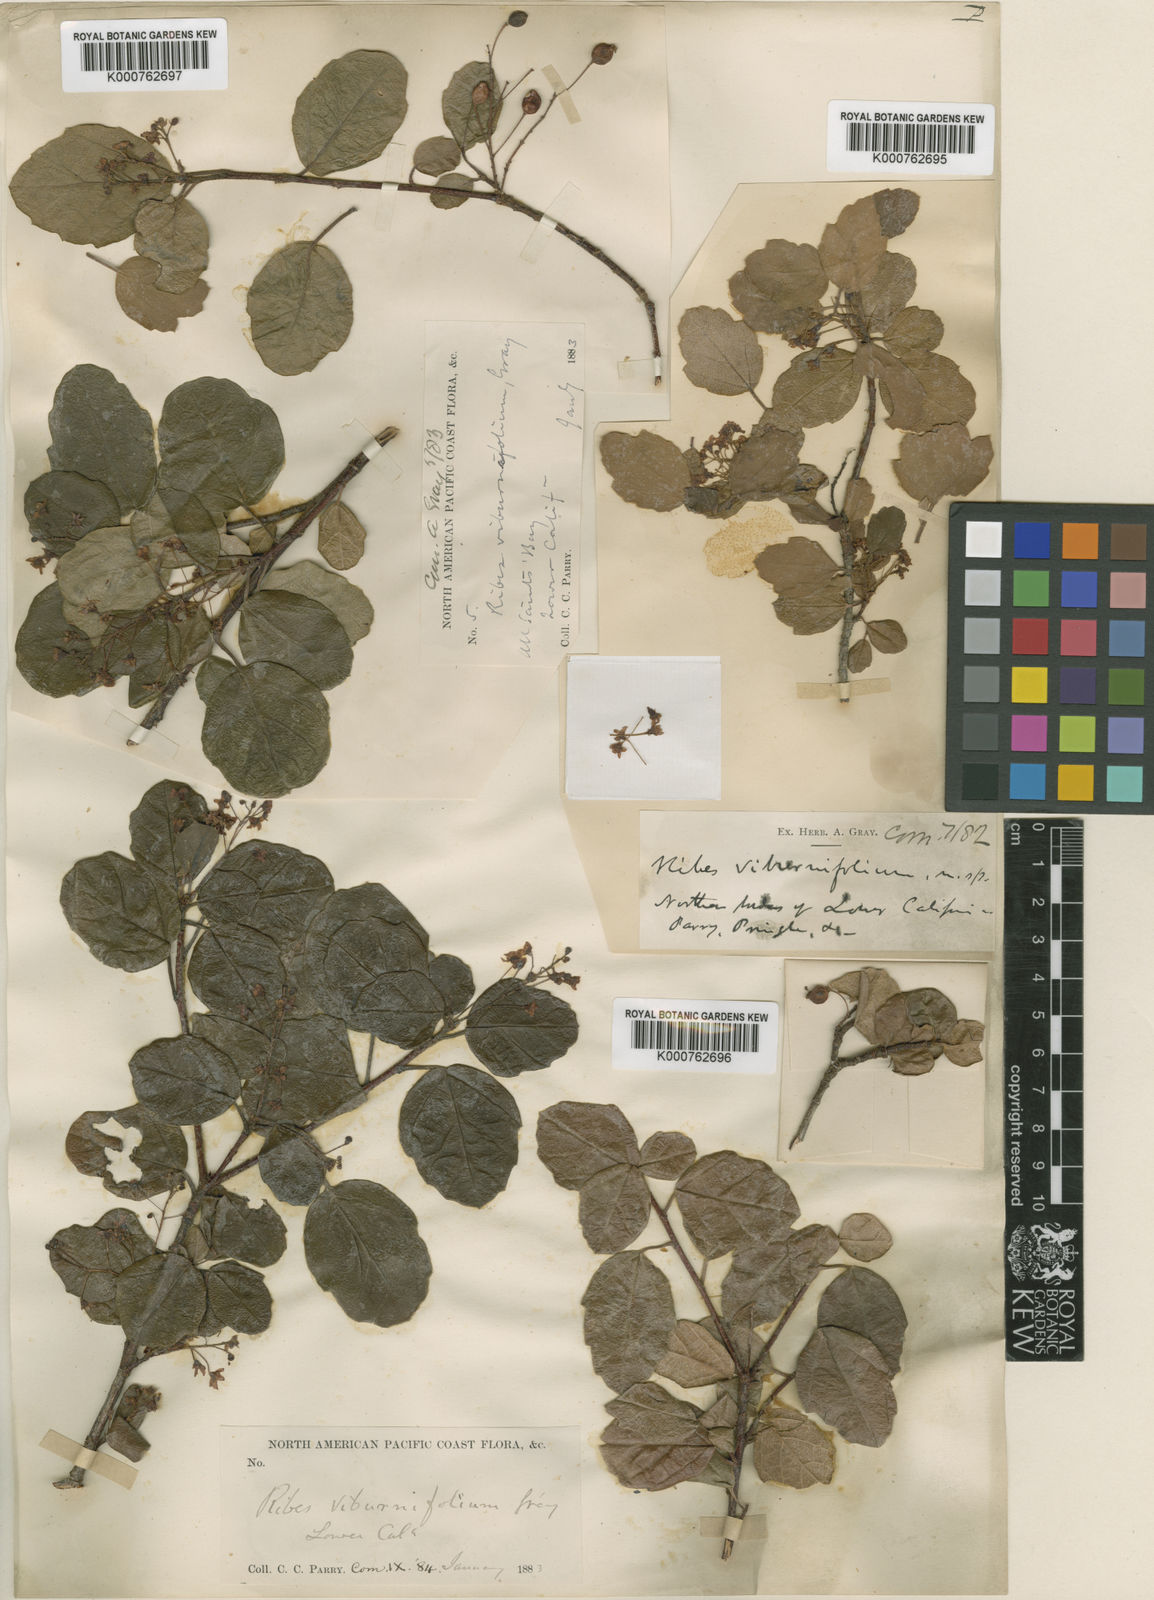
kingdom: Plantae
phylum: Tracheophyta
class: Magnoliopsida
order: Saxifragales
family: Grossulariaceae
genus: Ribes
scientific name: Ribes viburnifolium
